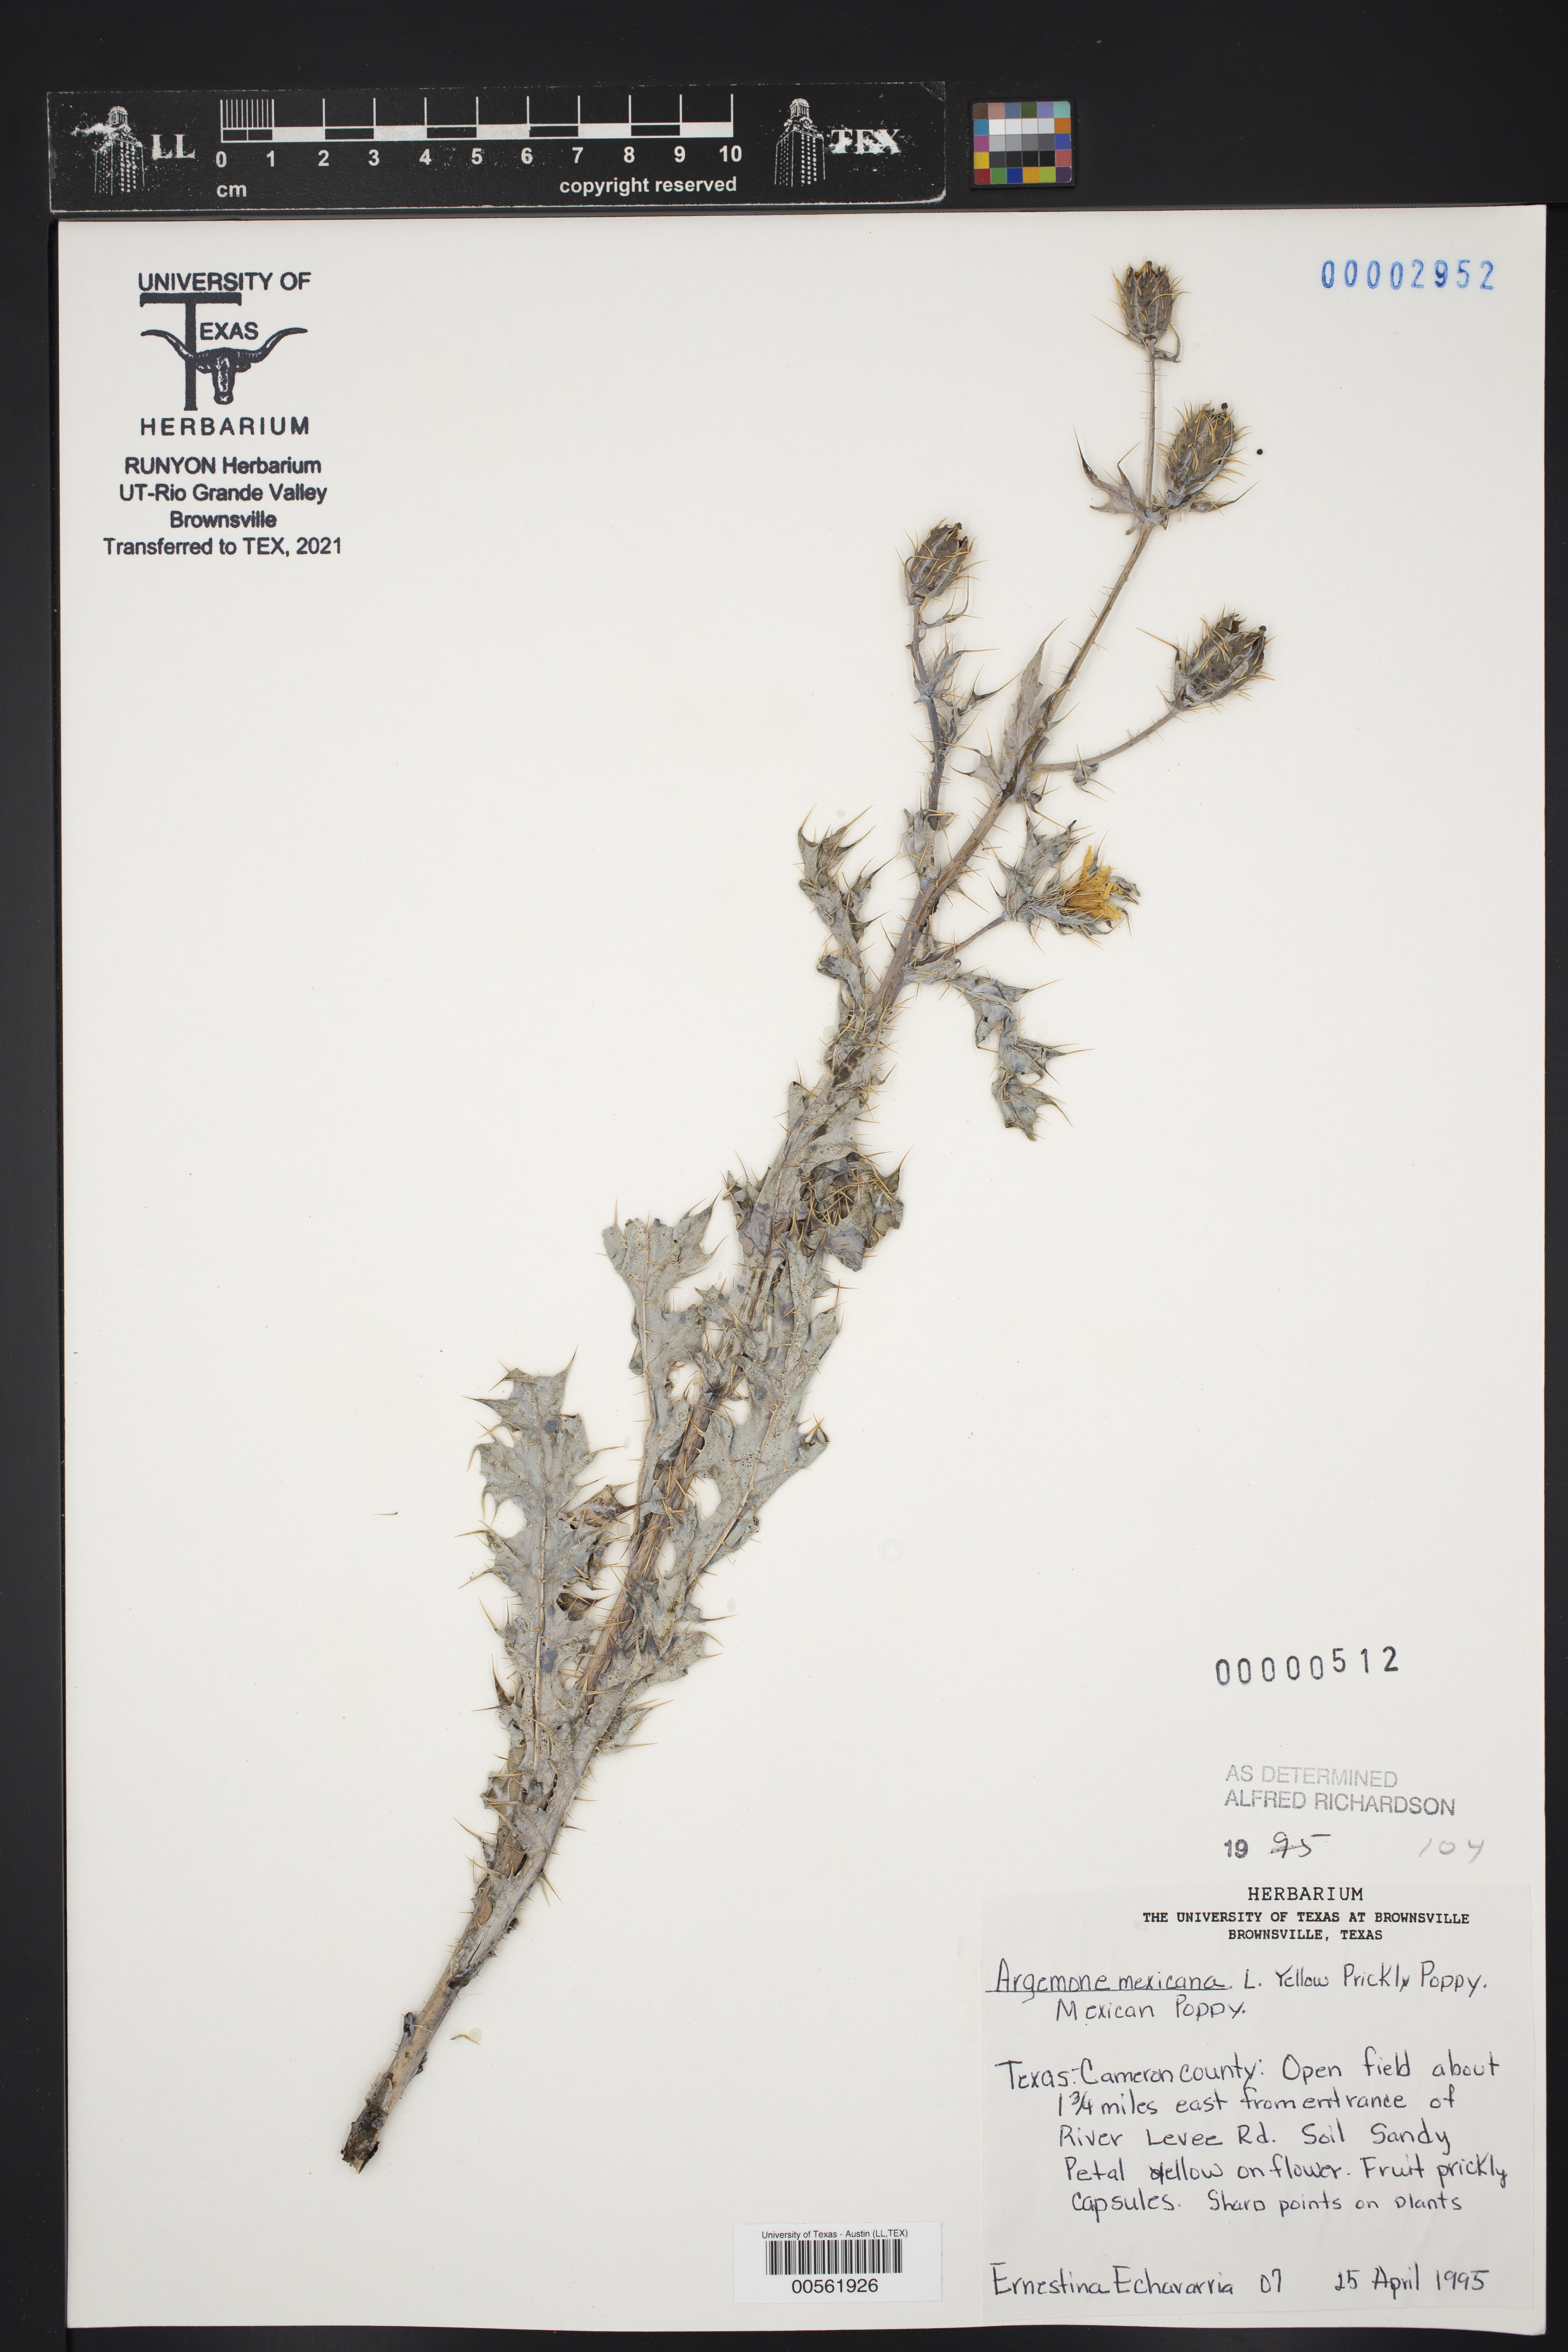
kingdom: Plantae
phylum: Tracheophyta
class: Magnoliopsida
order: Ranunculales
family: Papaveraceae
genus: Argemone
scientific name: Argemone mexicana
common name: Mexican poppy
